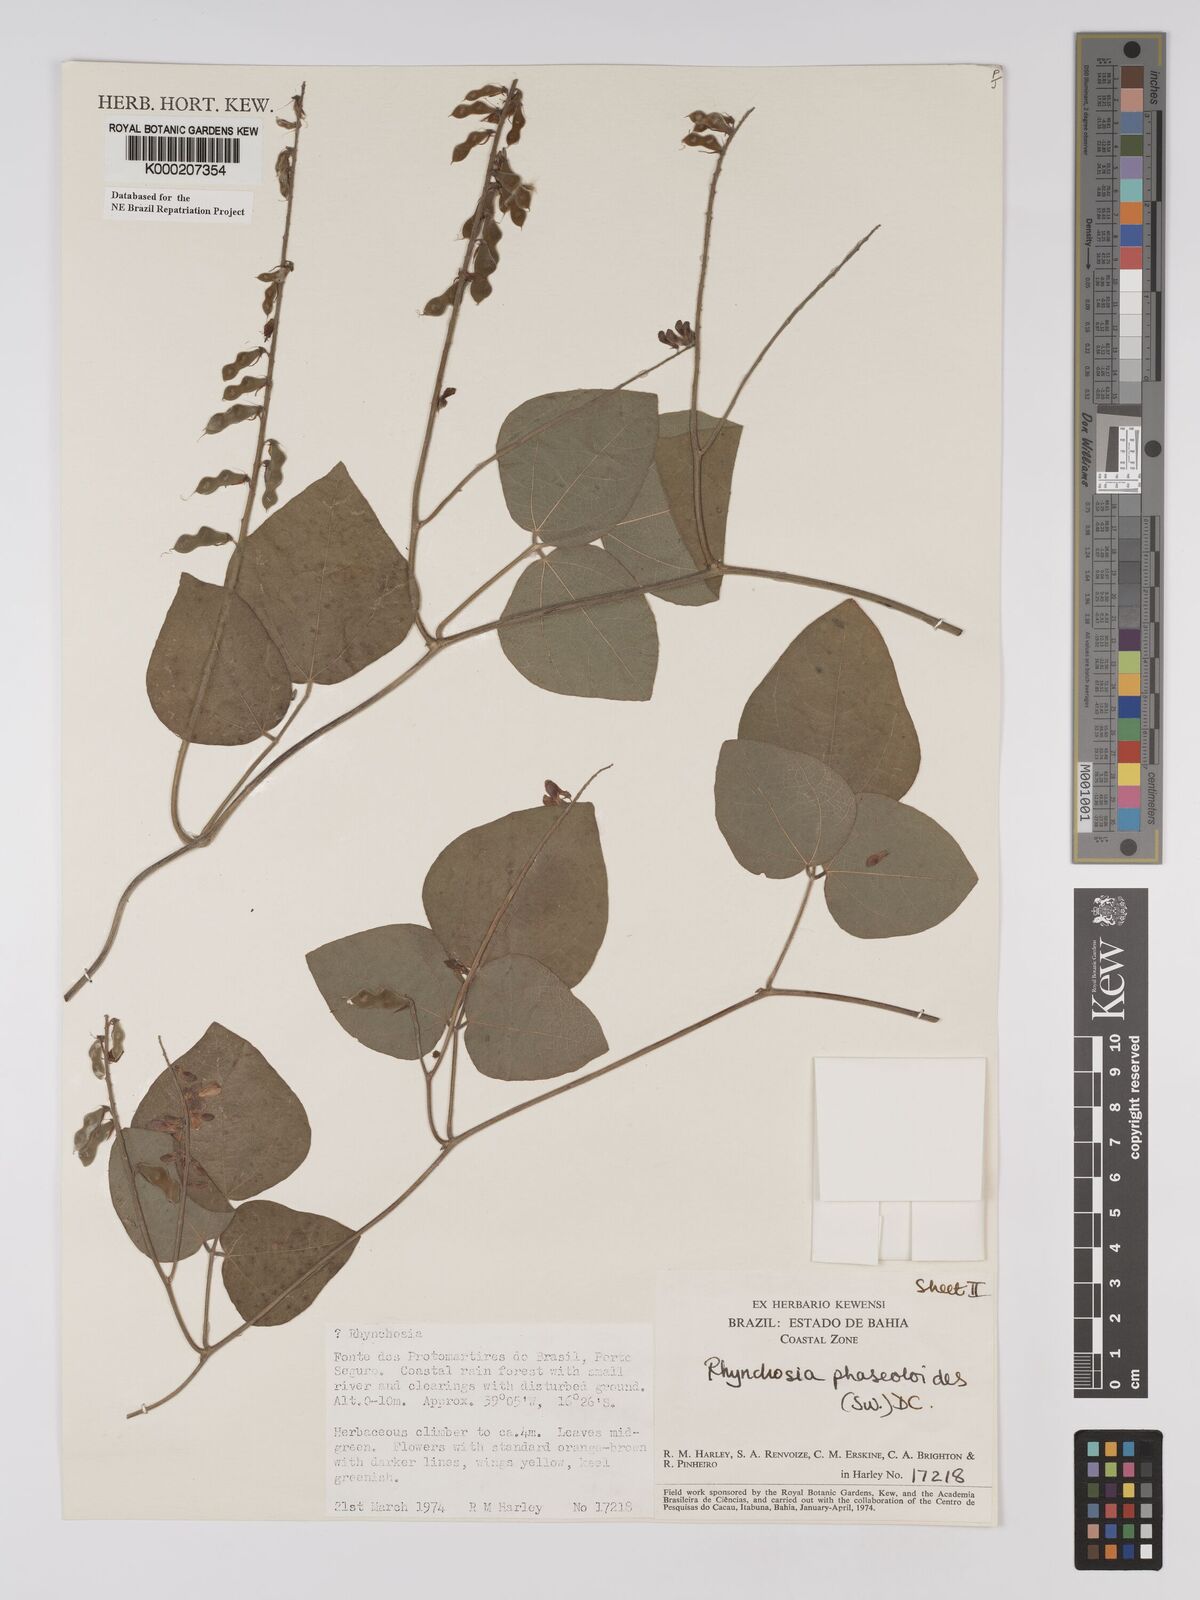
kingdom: Plantae
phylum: Tracheophyta
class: Magnoliopsida
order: Fabales
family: Fabaceae
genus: Rhynchosia
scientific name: Rhynchosia phaseoloides
